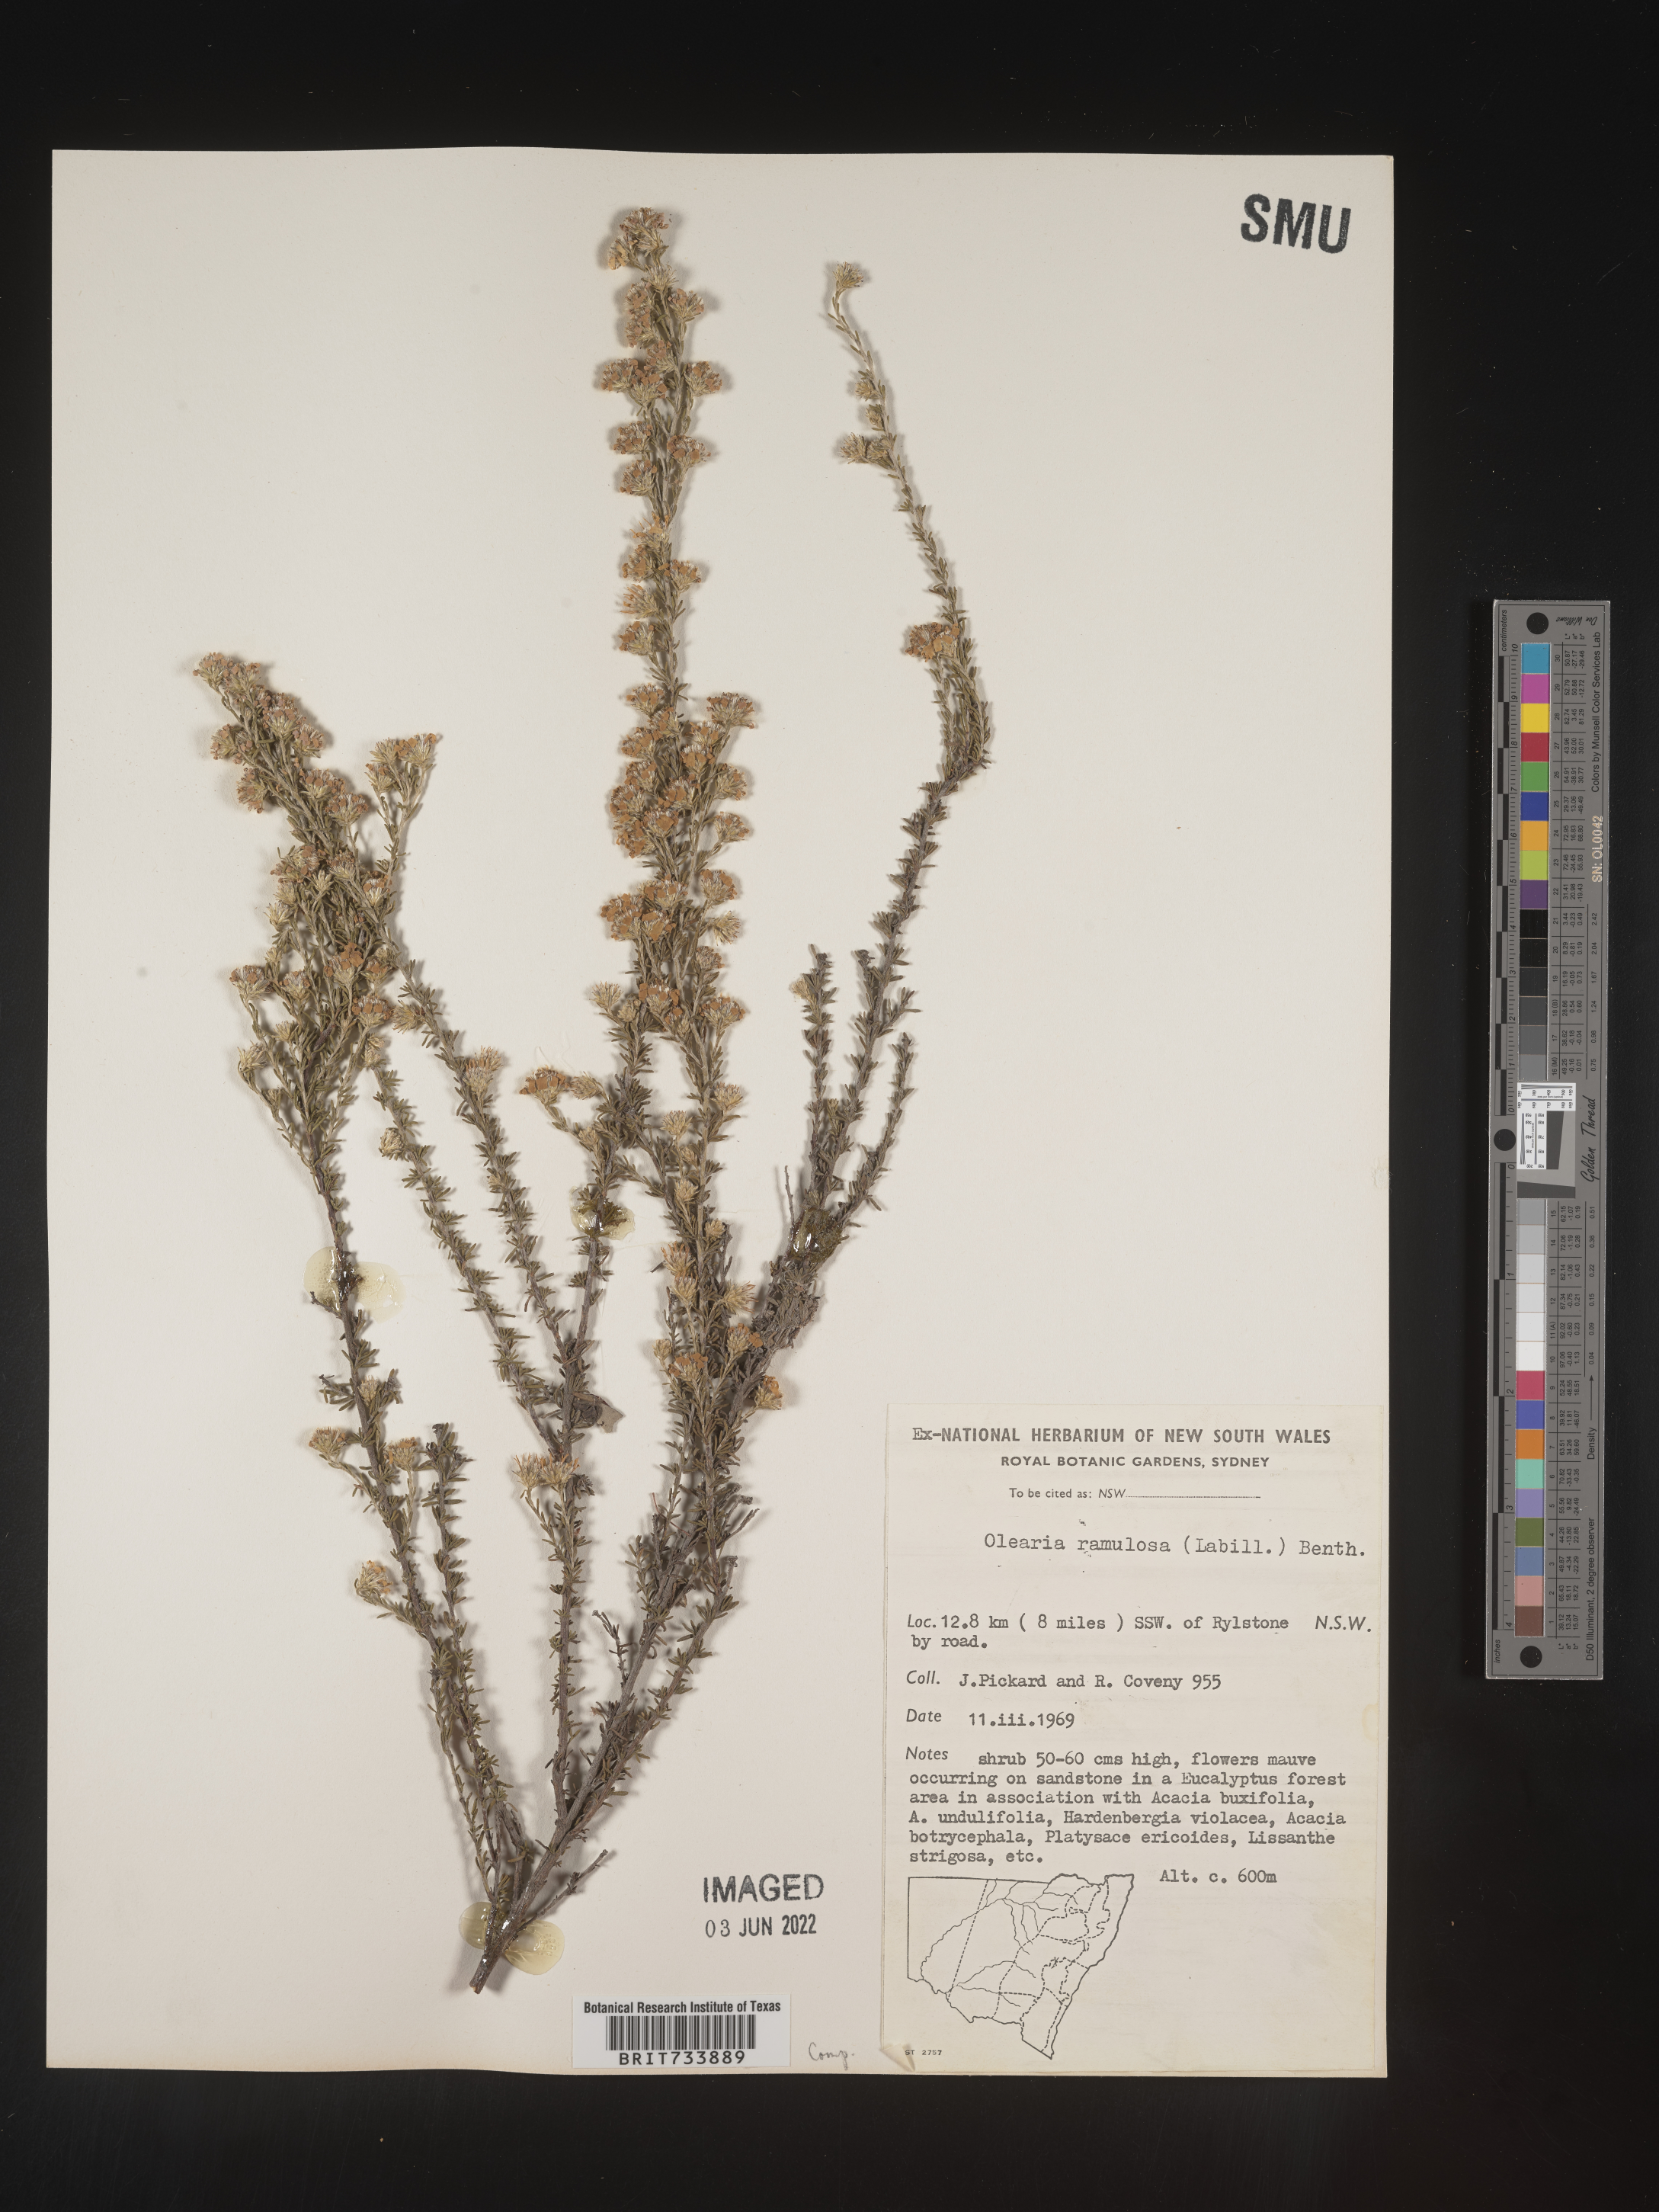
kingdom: Plantae
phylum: Tracheophyta
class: Magnoliopsida
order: Asterales
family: Asteraceae
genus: Olearia
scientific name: Olearia
